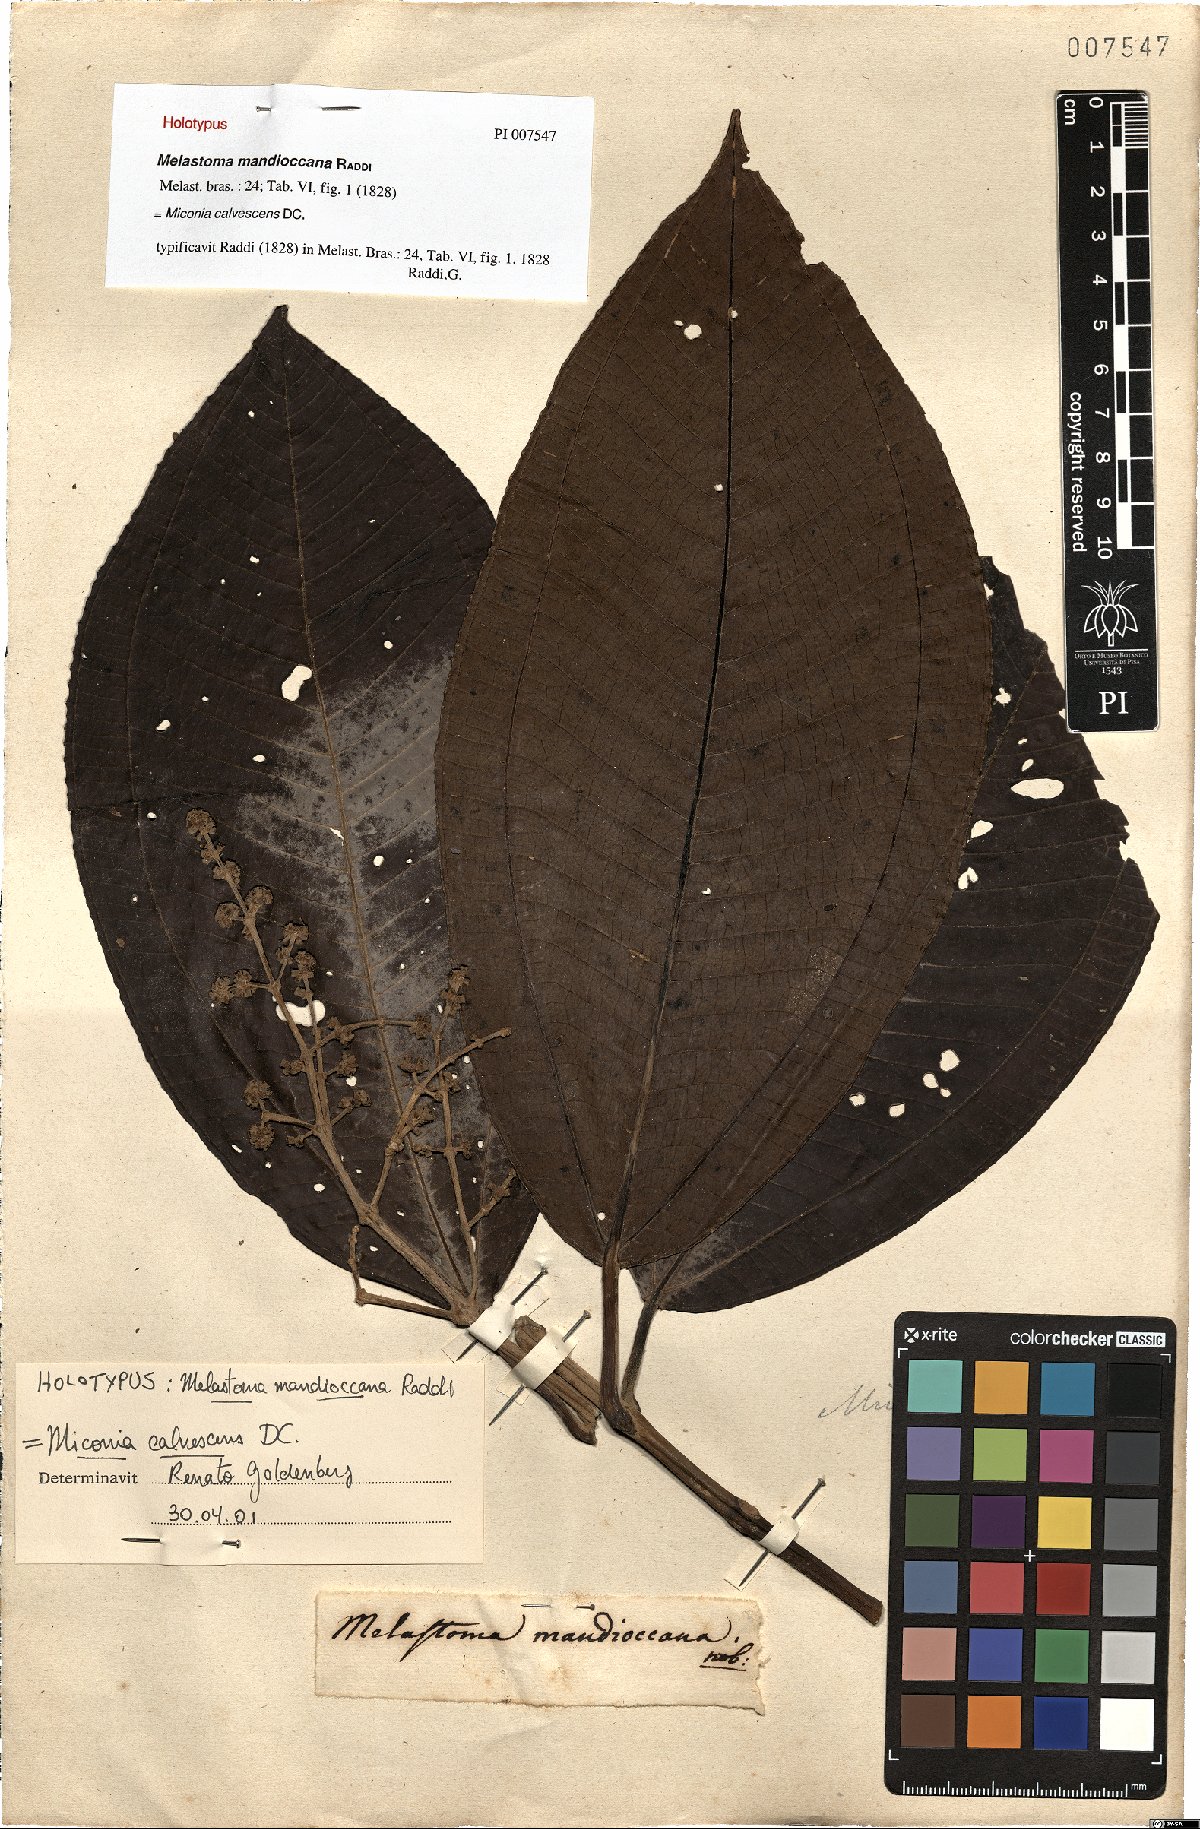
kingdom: Plantae
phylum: Tracheophyta
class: Magnoliopsida
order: Myrtales
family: Melastomataceae
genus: Miconia
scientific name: Miconia calvescens
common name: Purple plague
